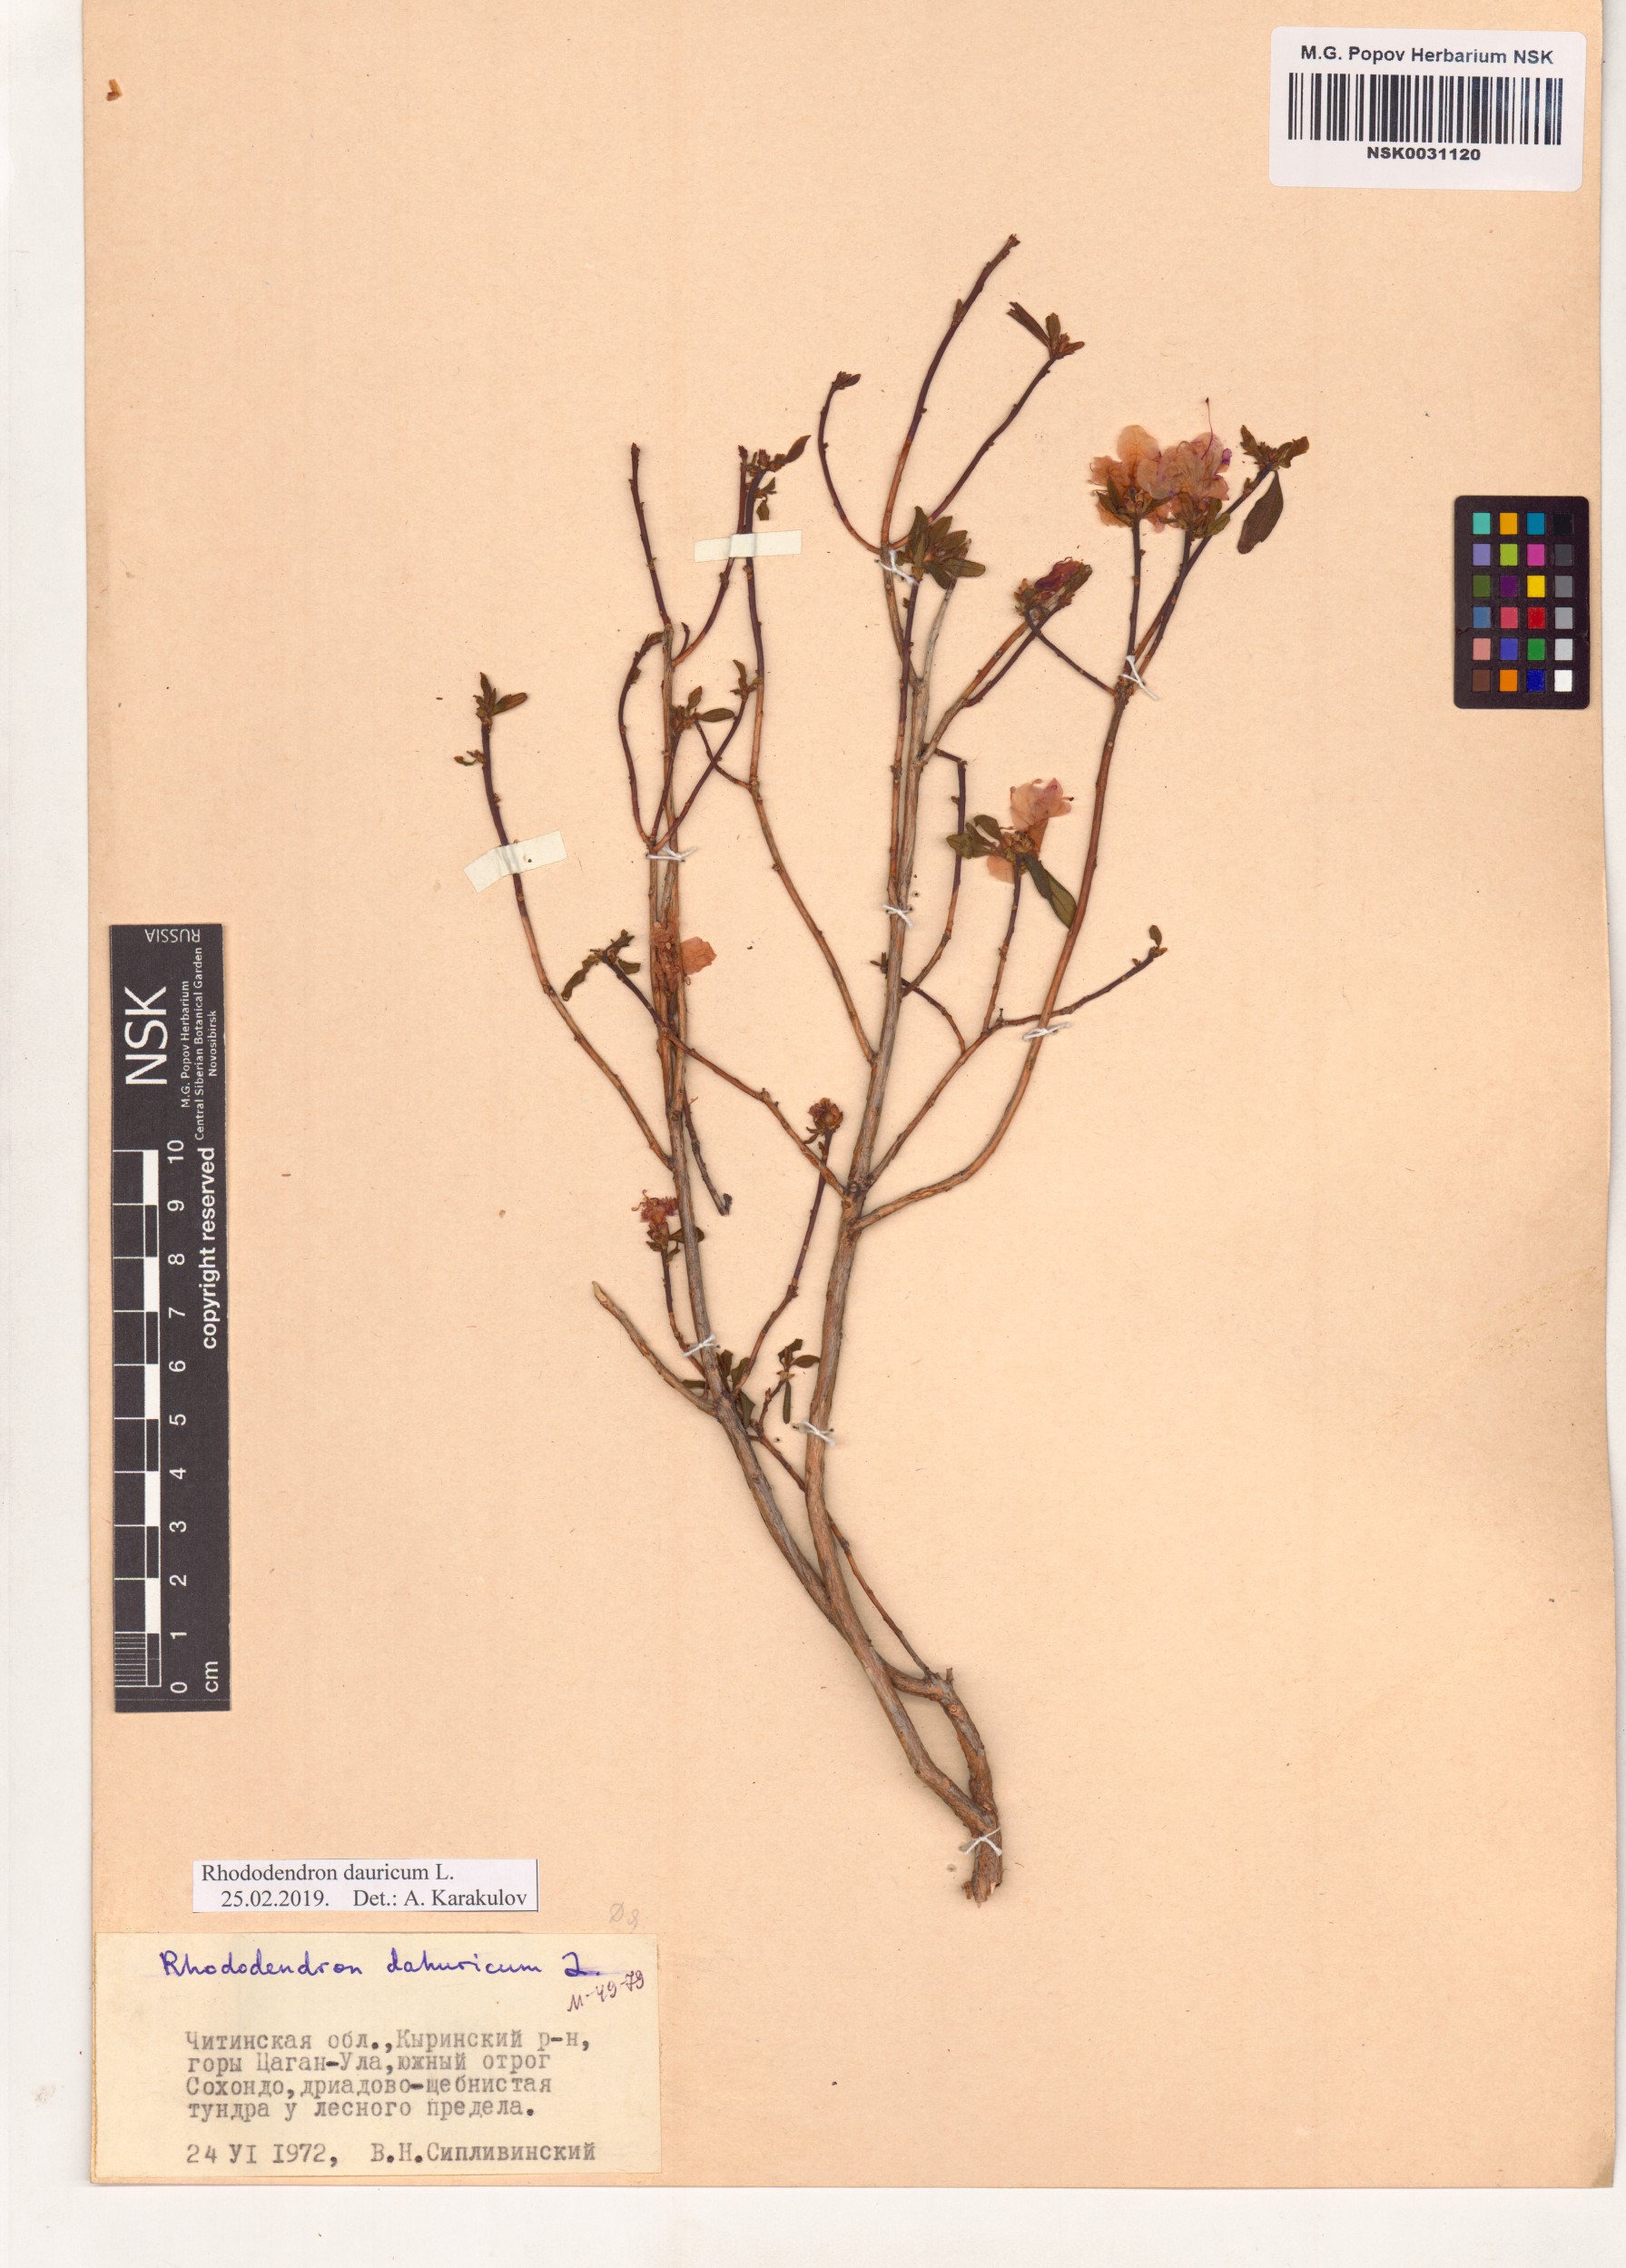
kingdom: Plantae
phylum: Tracheophyta
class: Magnoliopsida
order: Ericales
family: Ericaceae
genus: Rhododendron
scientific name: Rhododendron dauricum
